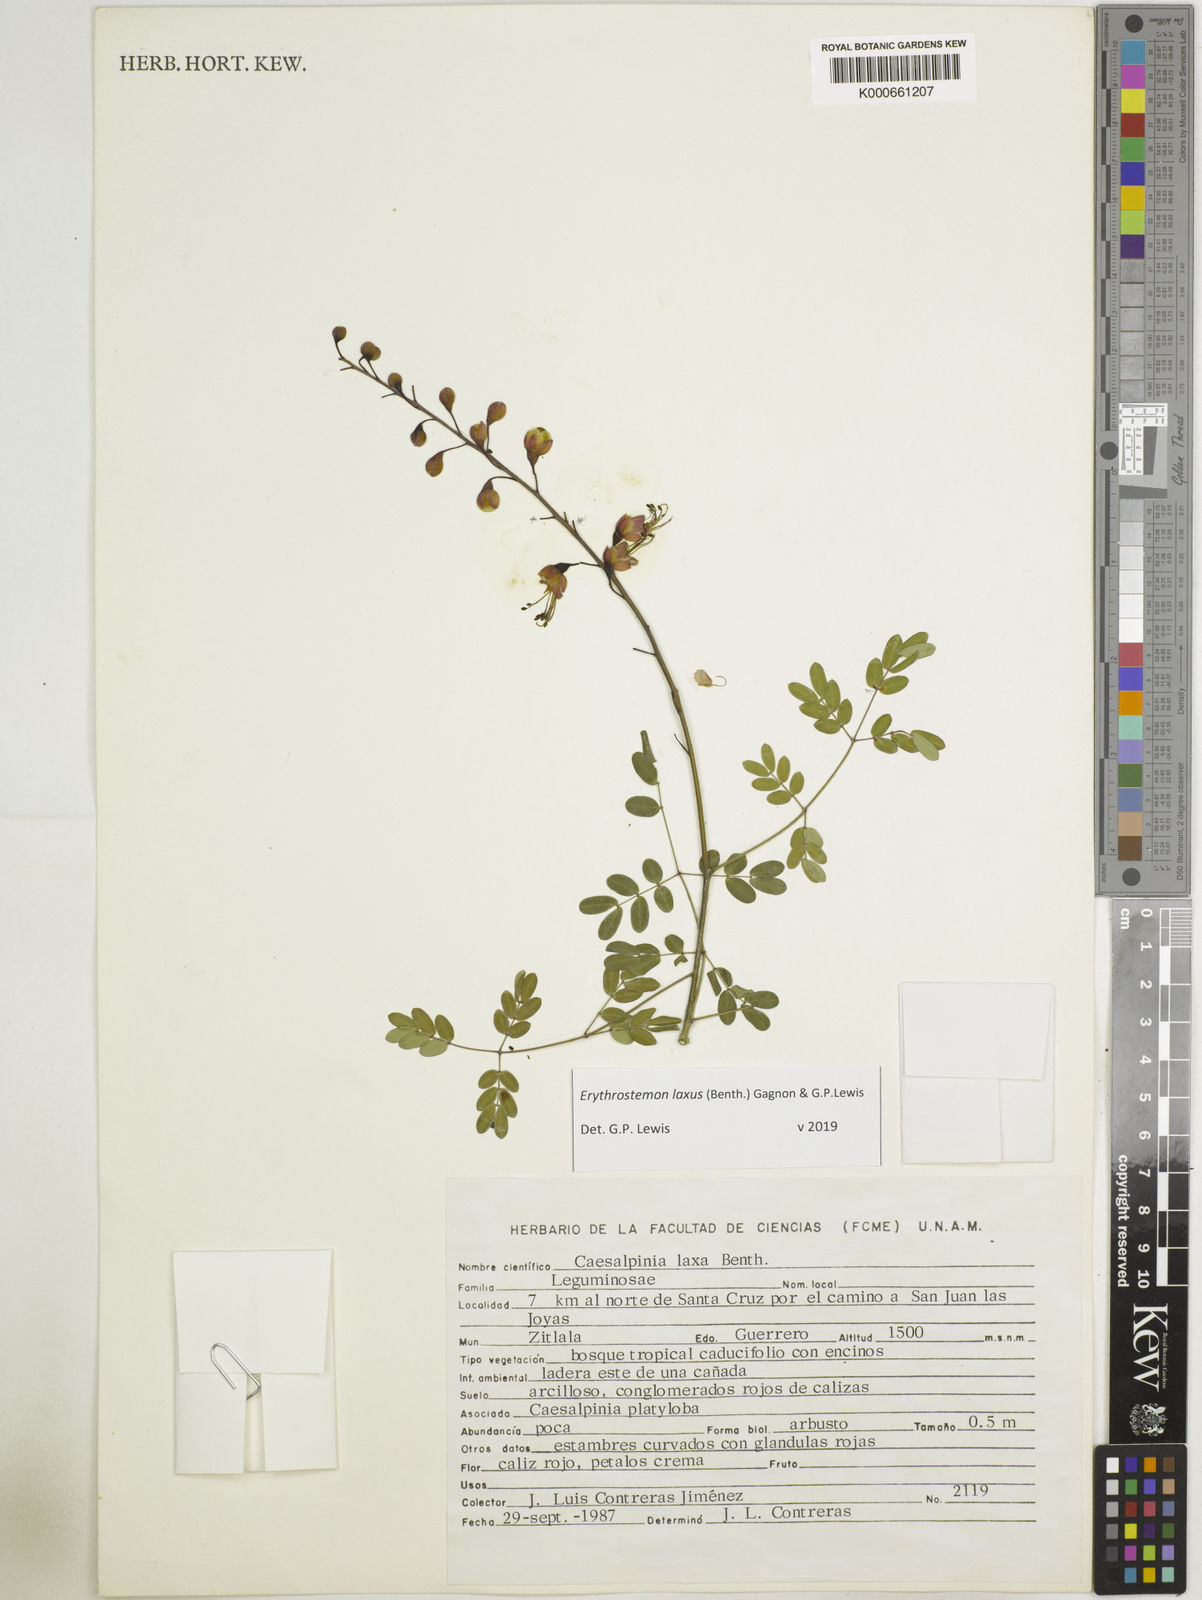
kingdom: Plantae
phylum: Tracheophyta
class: Magnoliopsida
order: Fabales
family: Fabaceae
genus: Erythrostemon
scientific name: Erythrostemon laxus
